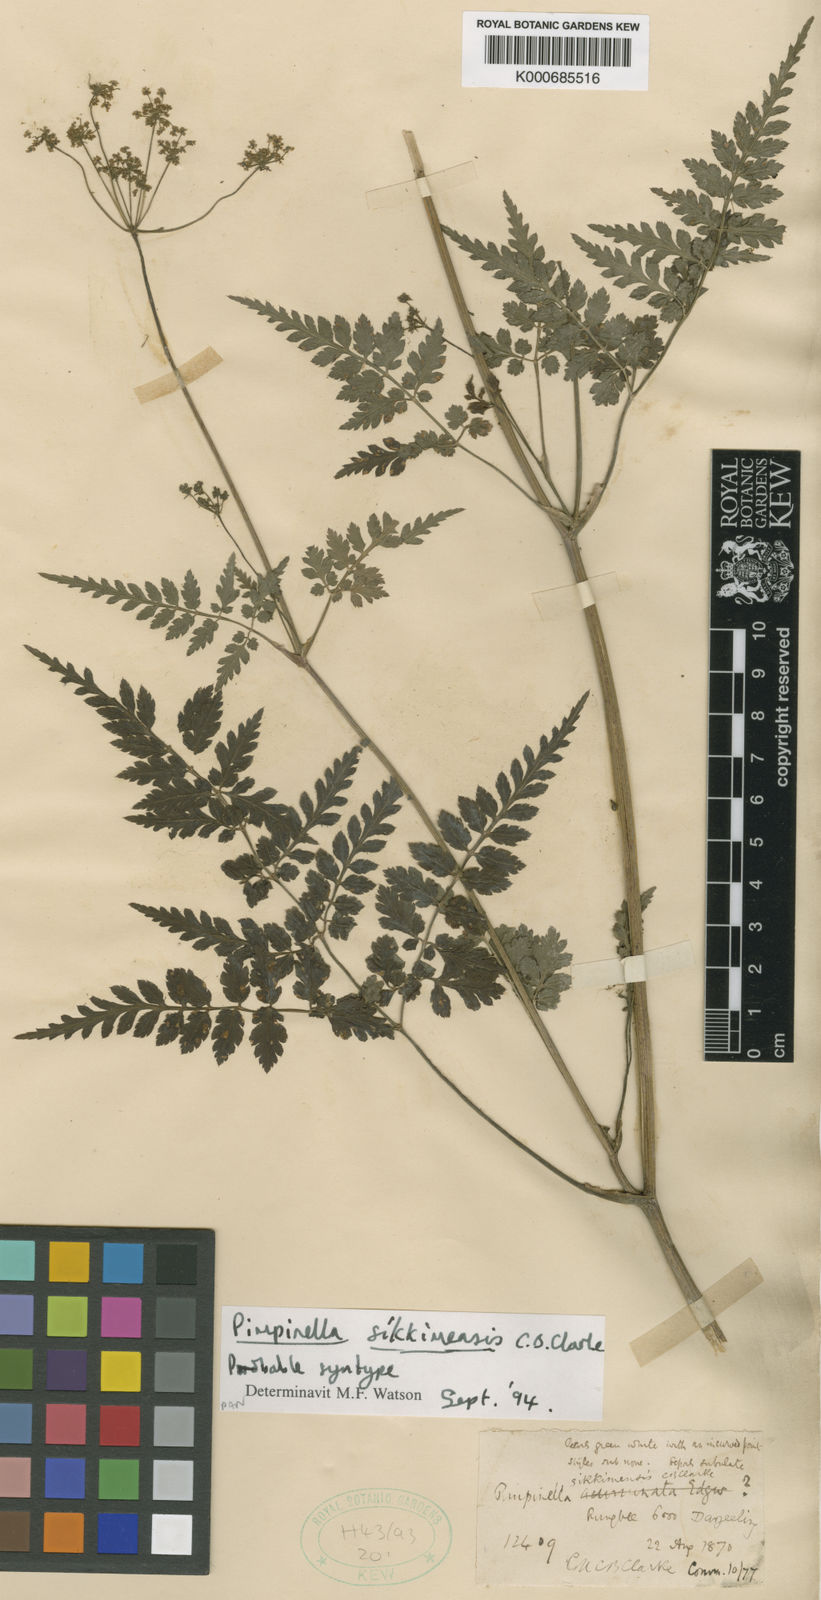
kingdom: Plantae
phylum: Tracheophyta
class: Magnoliopsida
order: Apiales
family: Apiaceae
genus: Pimpinella
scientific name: Pimpinella sikkimensis
